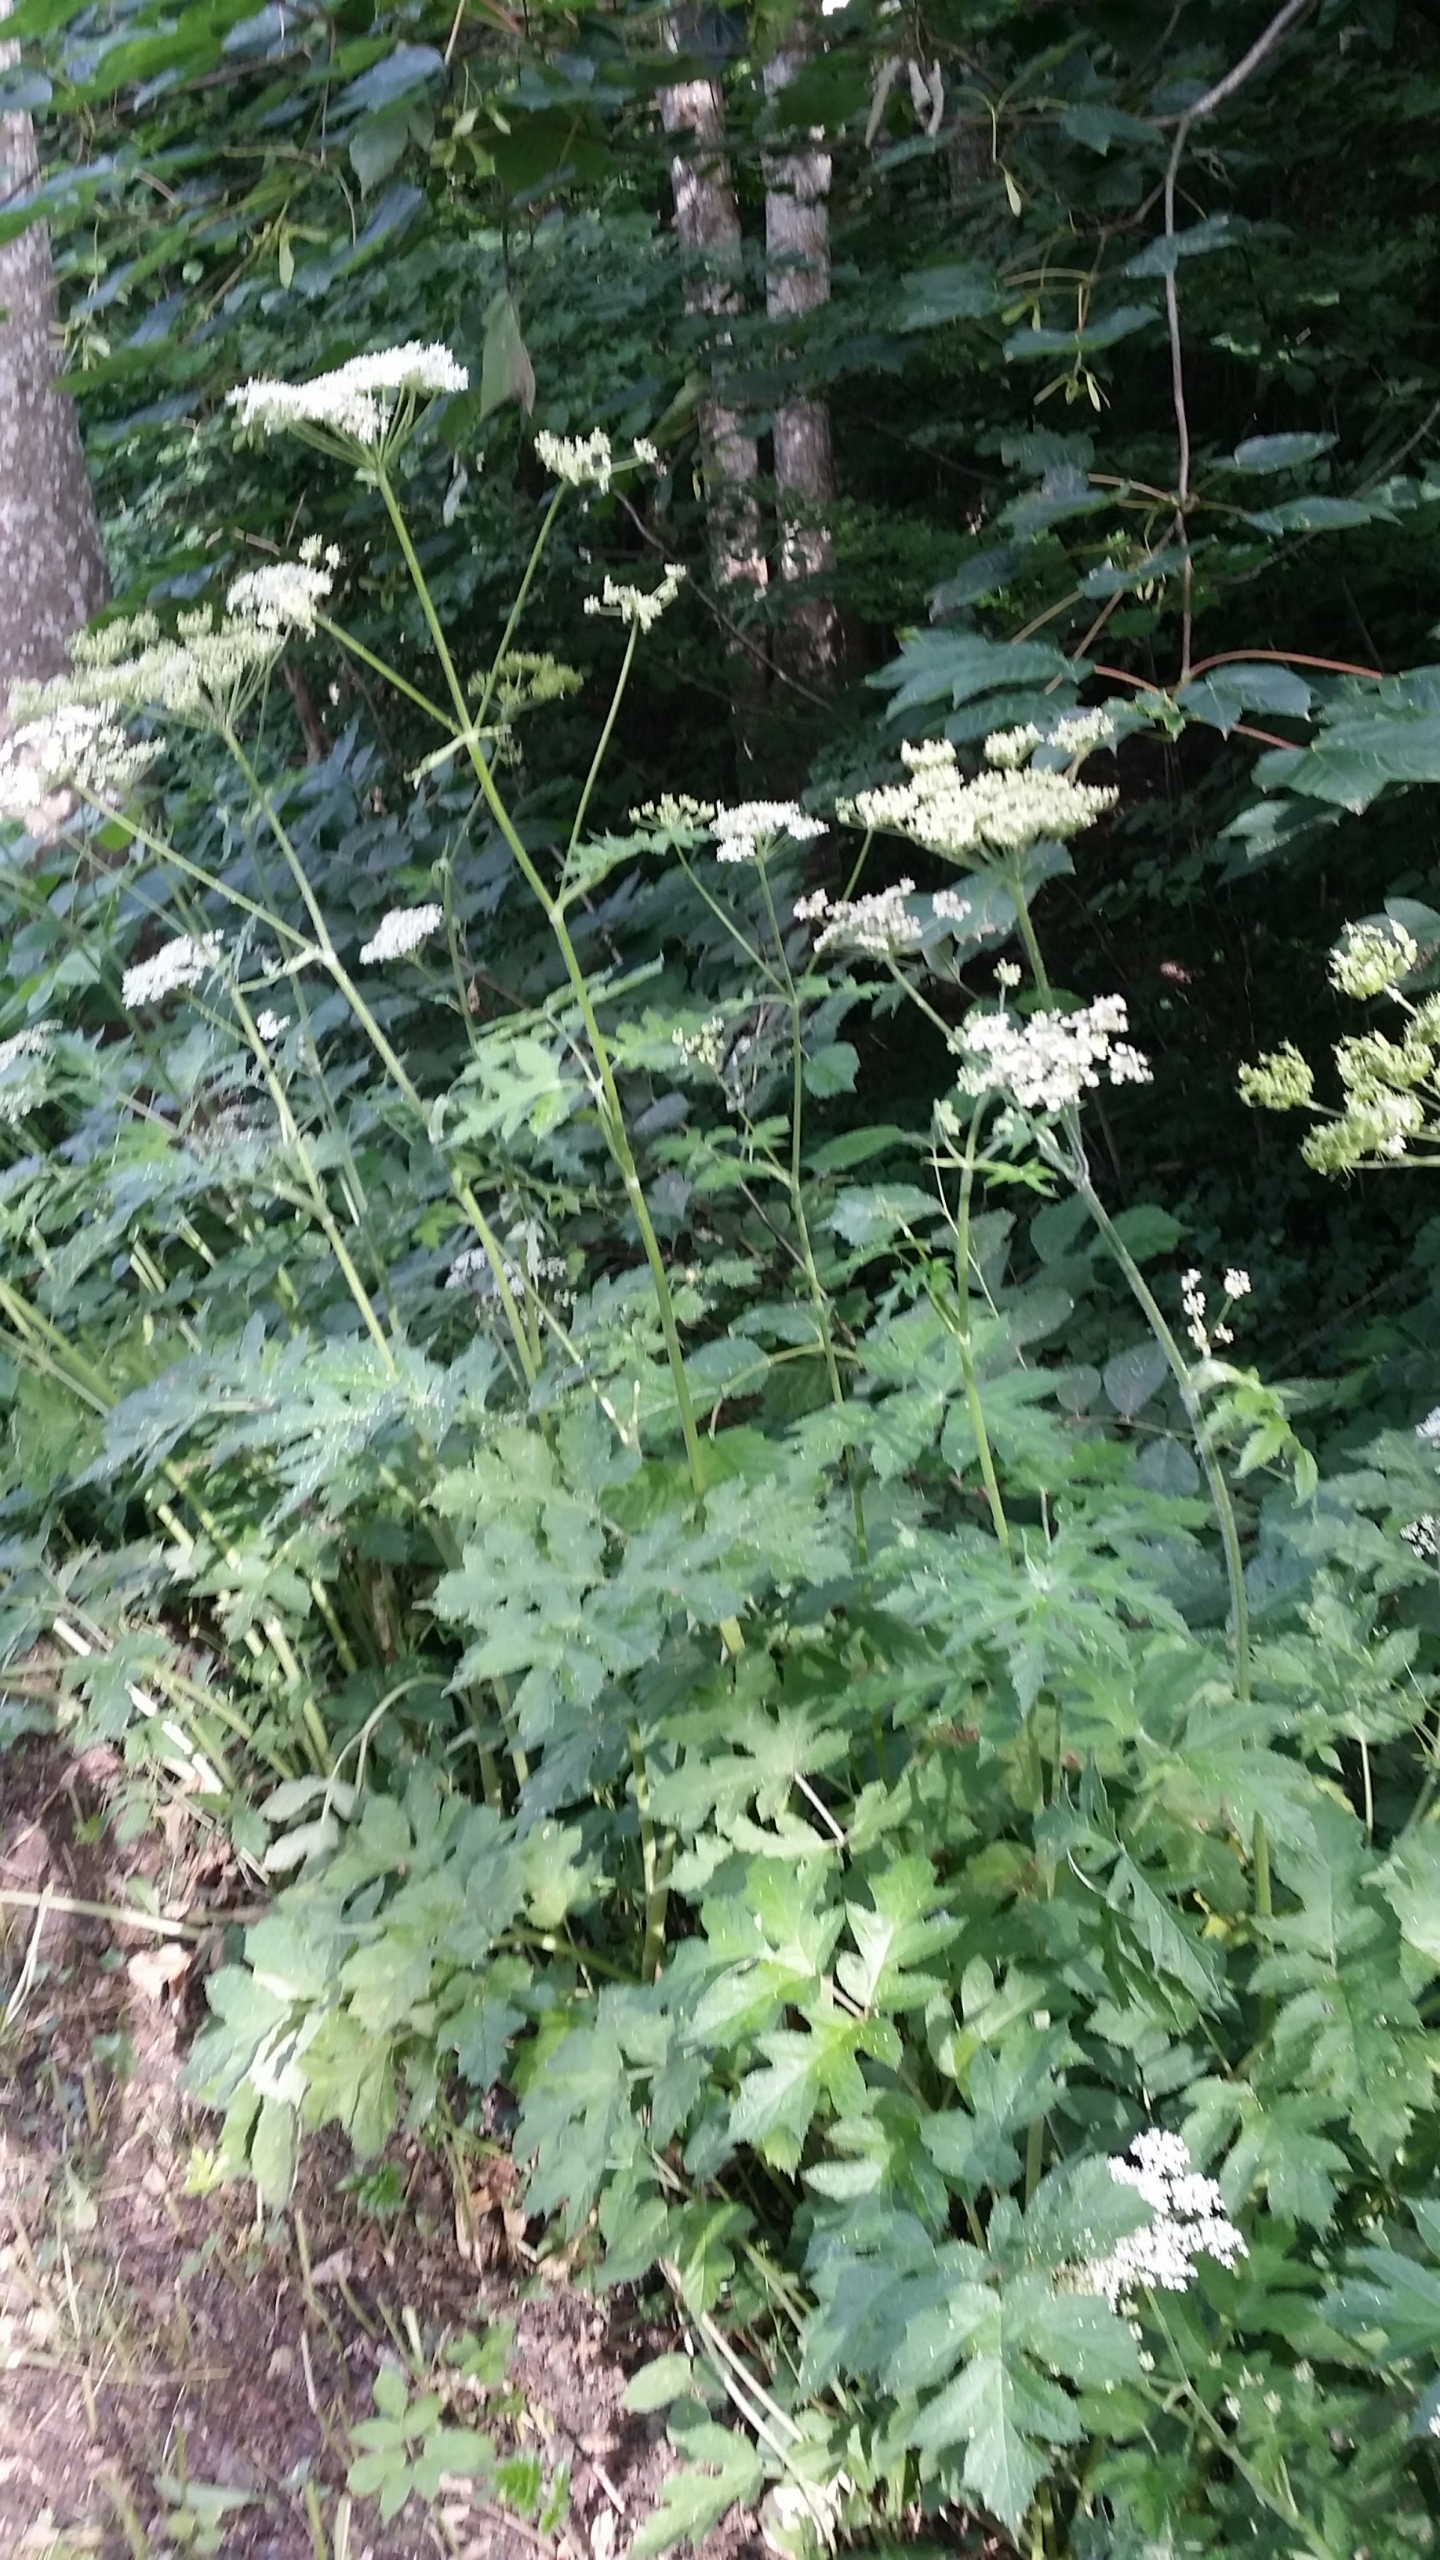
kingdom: Plantae
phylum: Tracheophyta
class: Magnoliopsida
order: Apiales
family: Apiaceae
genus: Heracleum
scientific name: Heracleum sphondylium
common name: Almindelig bjørneklo
